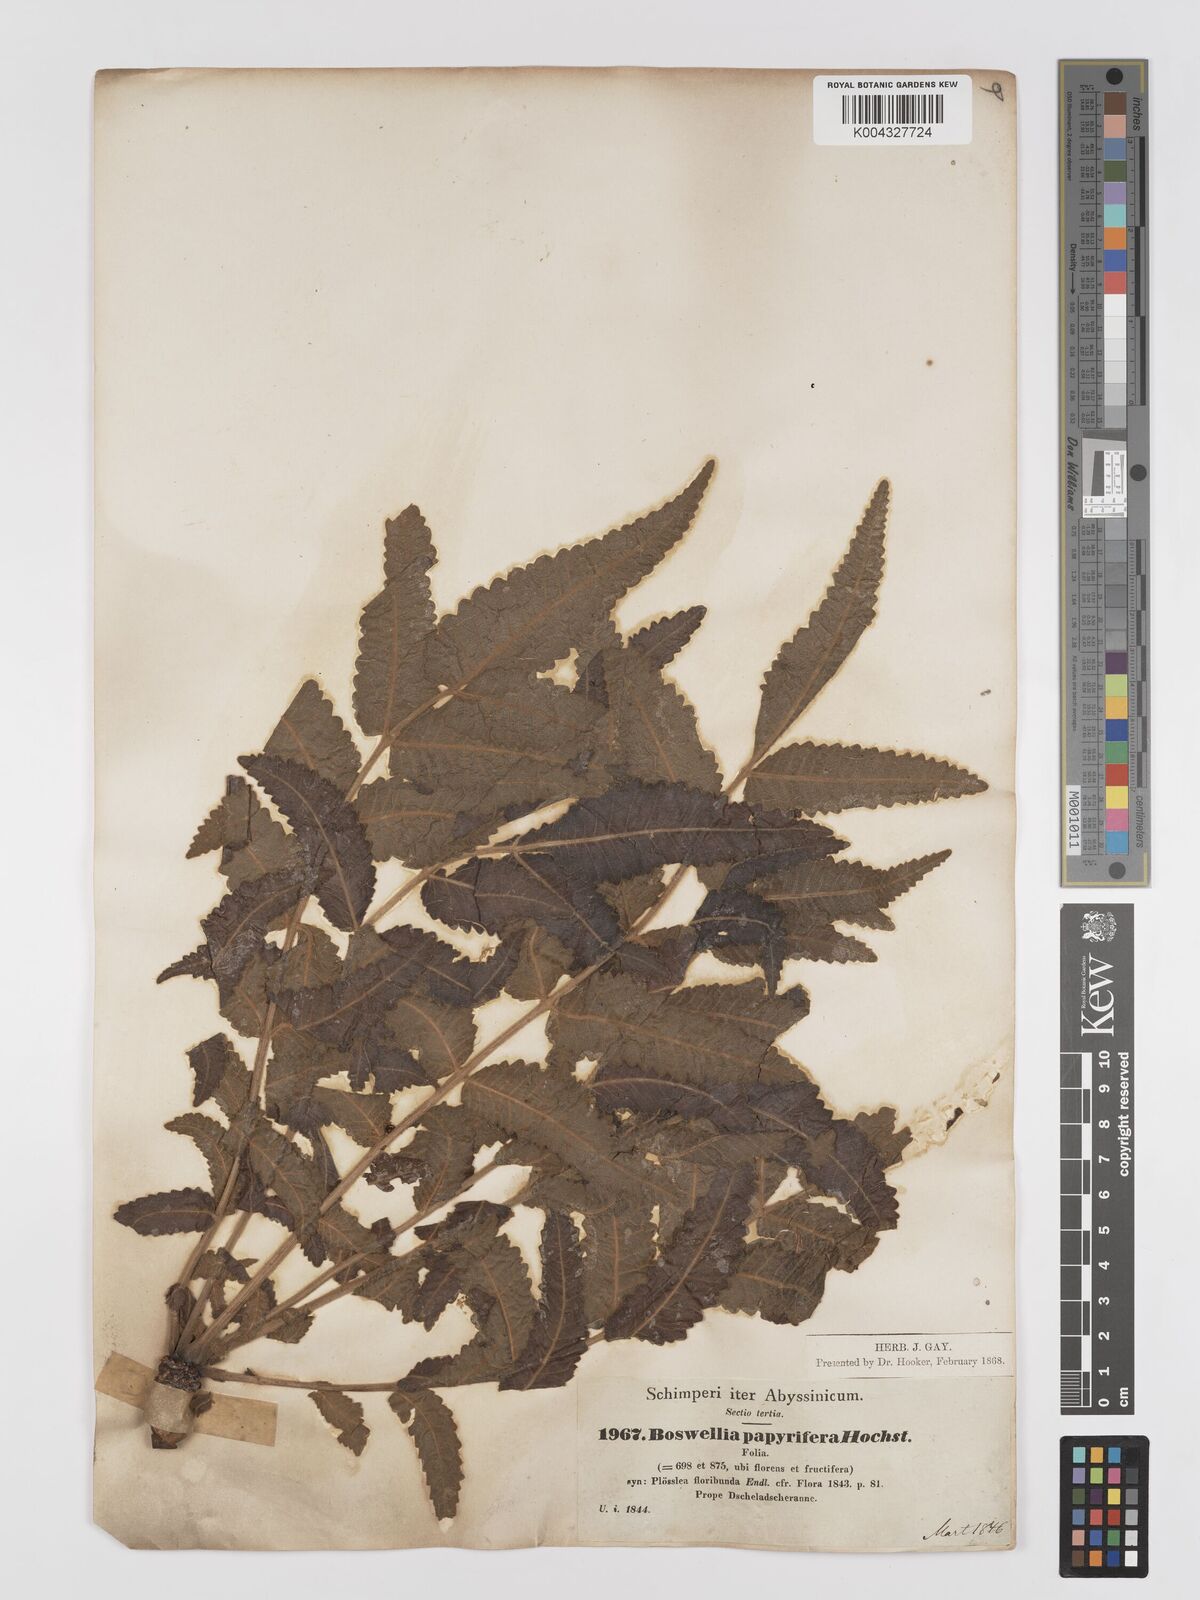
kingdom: Plantae
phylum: Tracheophyta
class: Magnoliopsida
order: Sapindales
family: Burseraceae
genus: Boswellia
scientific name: Boswellia papyrifera
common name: Sudanese frankincense
